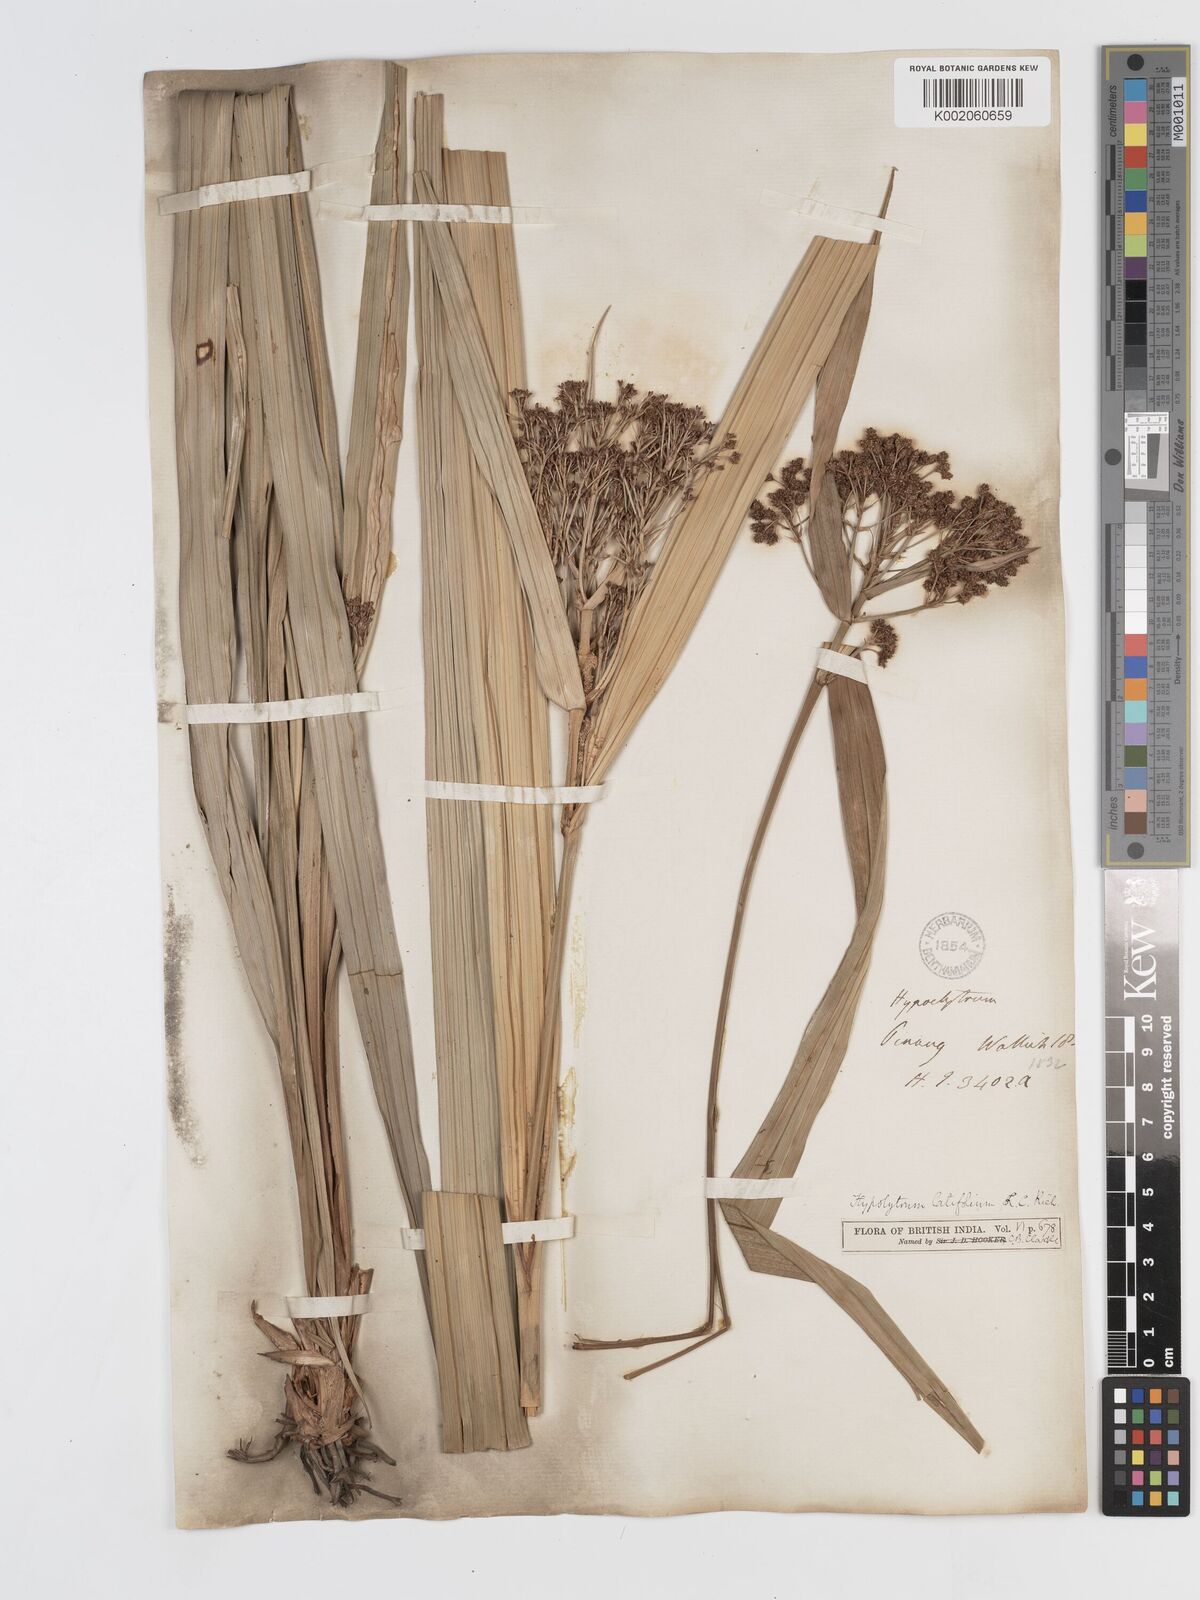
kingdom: Plantae
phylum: Tracheophyta
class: Liliopsida
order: Poales
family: Cyperaceae
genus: Hypolytrum
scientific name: Hypolytrum nemorum
